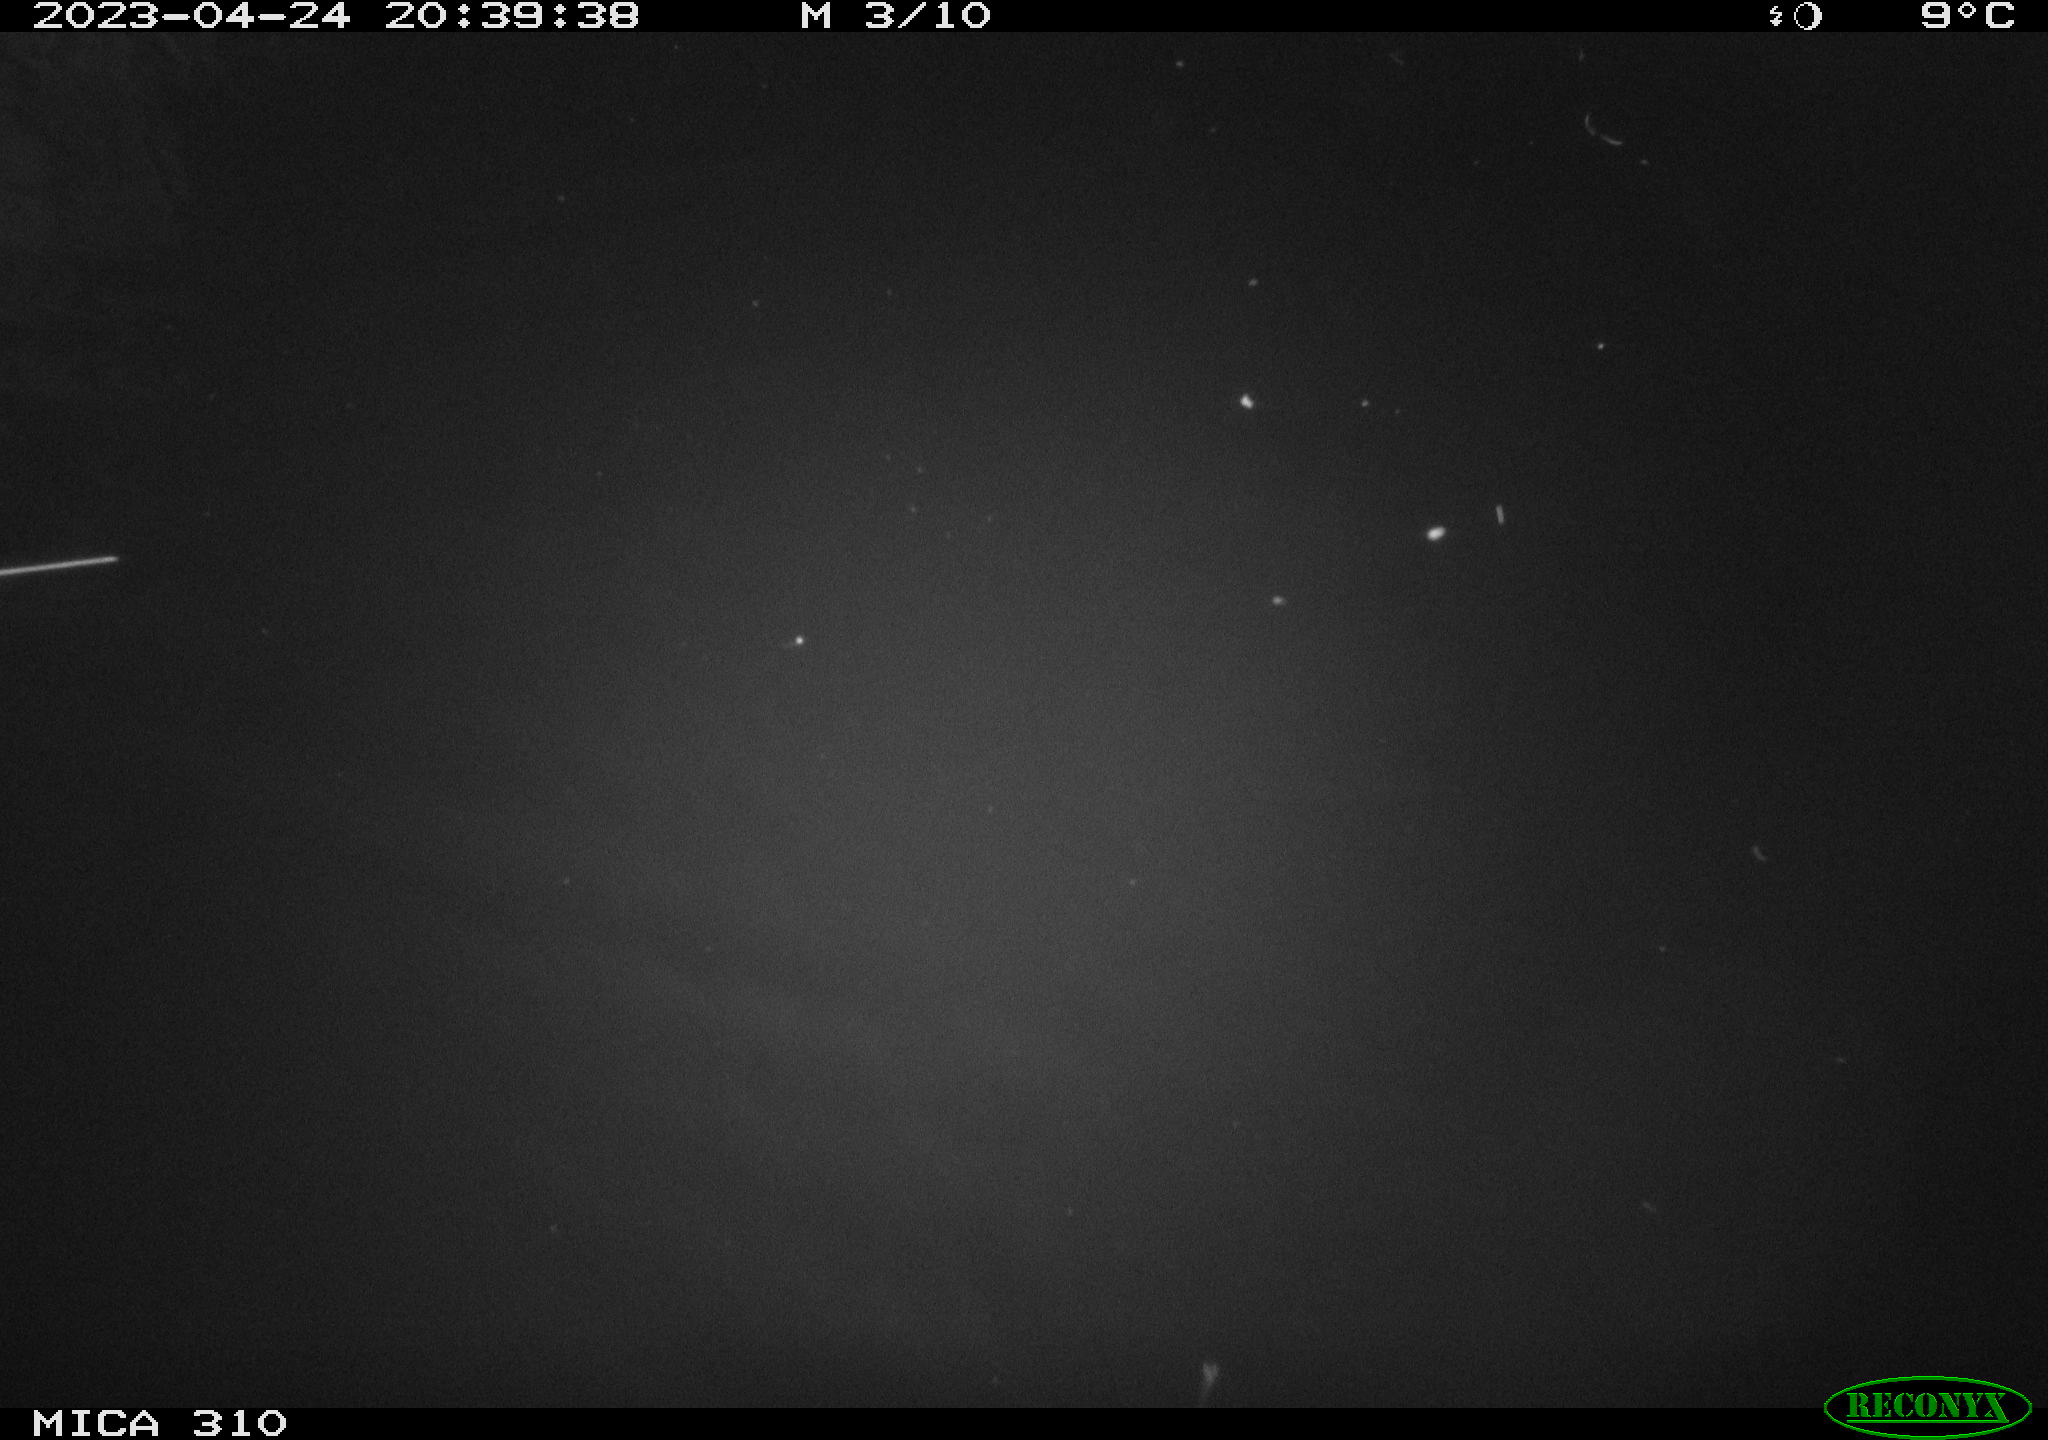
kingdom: Animalia
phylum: Chordata
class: Aves
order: Anseriformes
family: Anatidae
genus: Anas
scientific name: Anas
